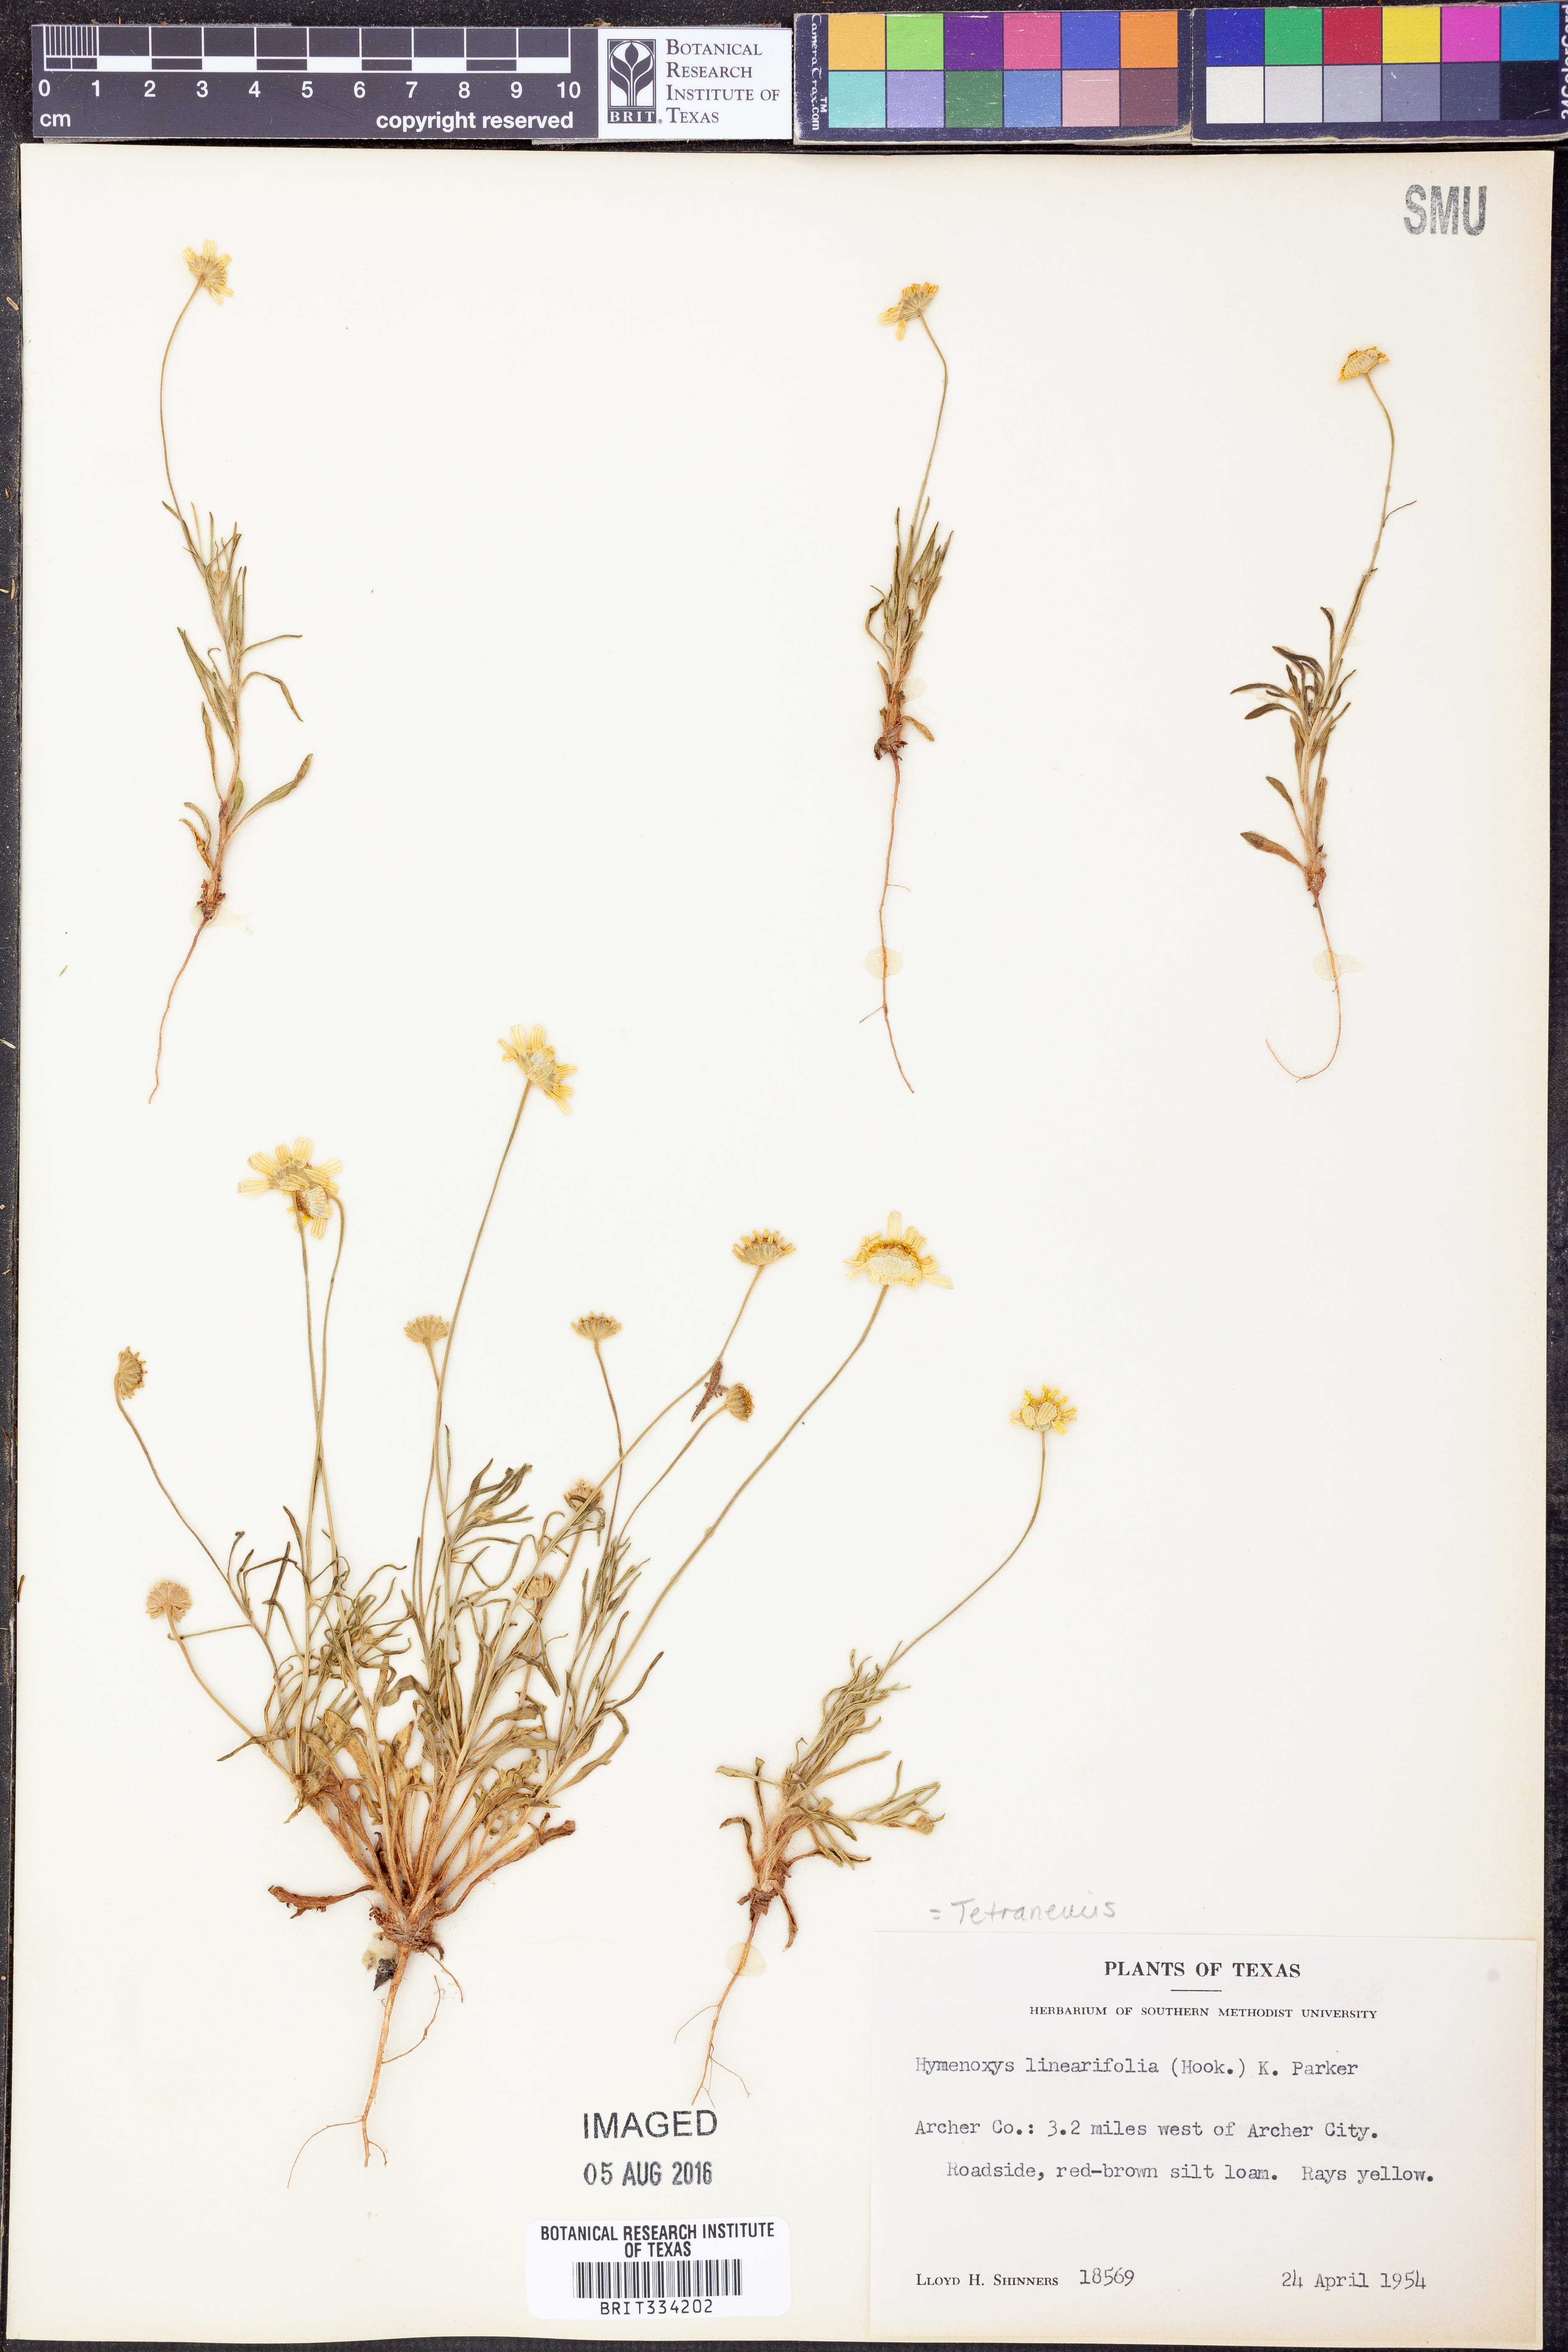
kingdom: Plantae
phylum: Tracheophyta
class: Magnoliopsida
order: Asterales
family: Asteraceae
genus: Tetraneuris
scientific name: Tetraneuris linearifolia
